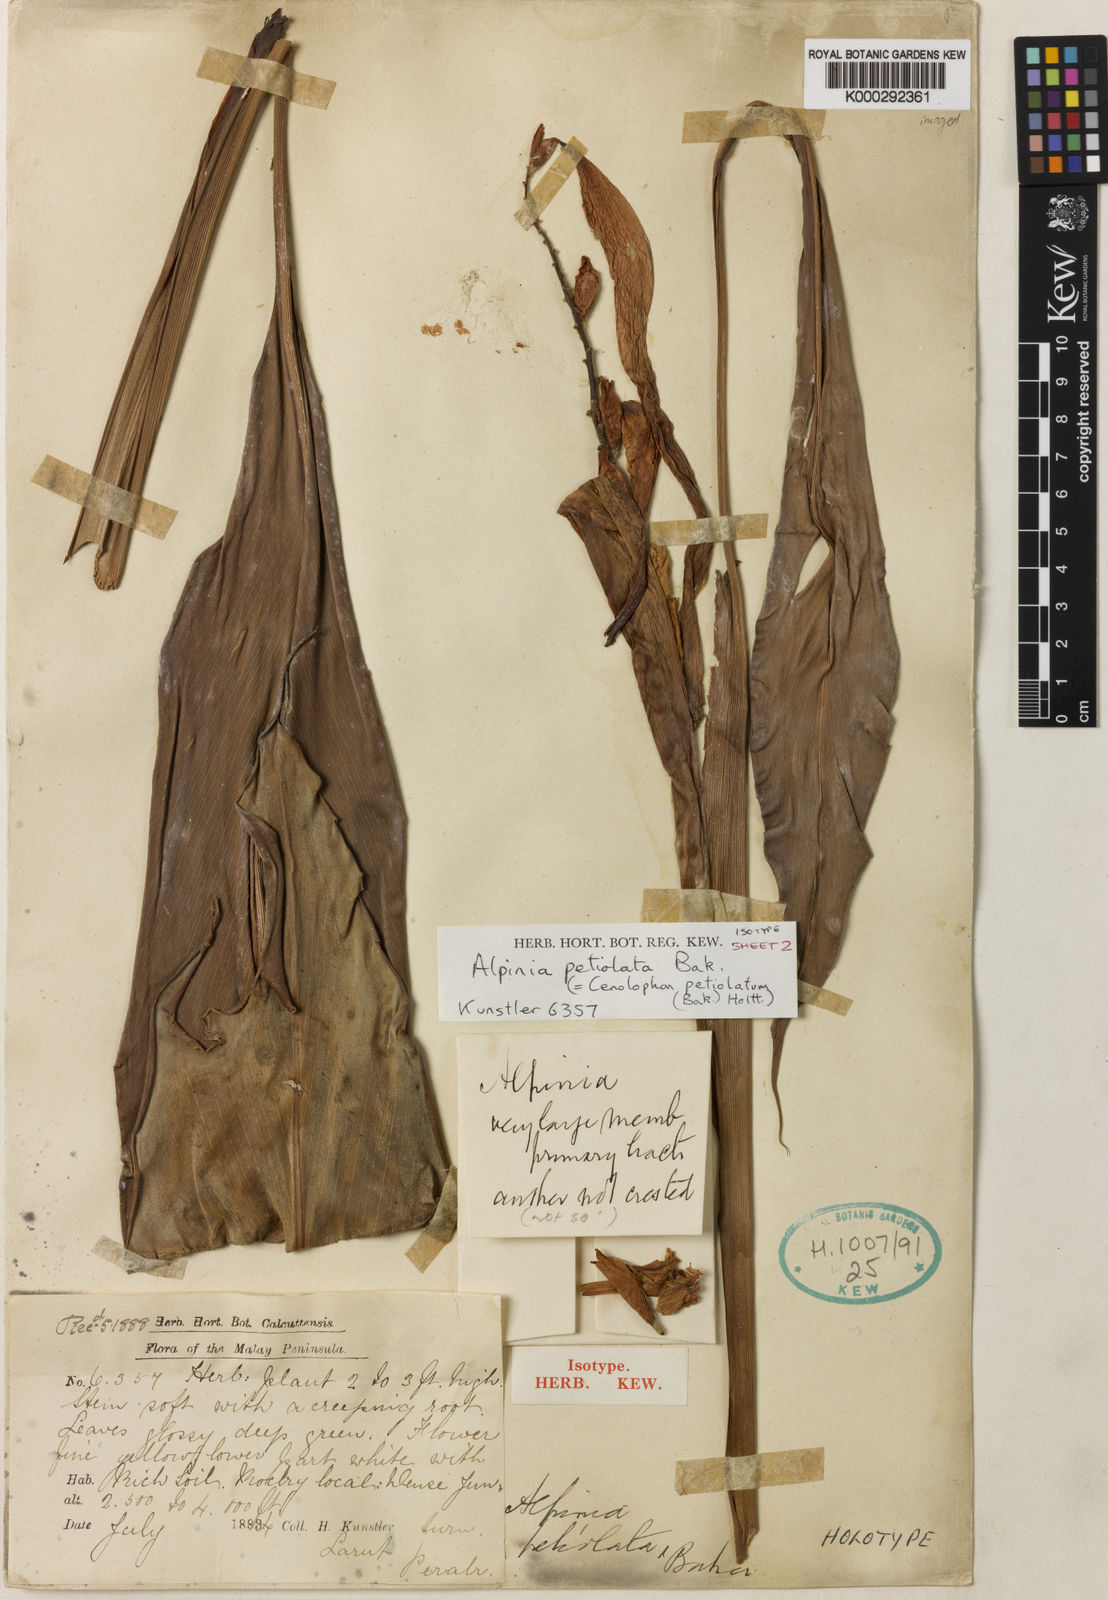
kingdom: Plantae
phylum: Tracheophyta
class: Liliopsida
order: Zingiberales
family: Zingiberaceae
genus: Alpinia
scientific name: Alpinia petiolata
